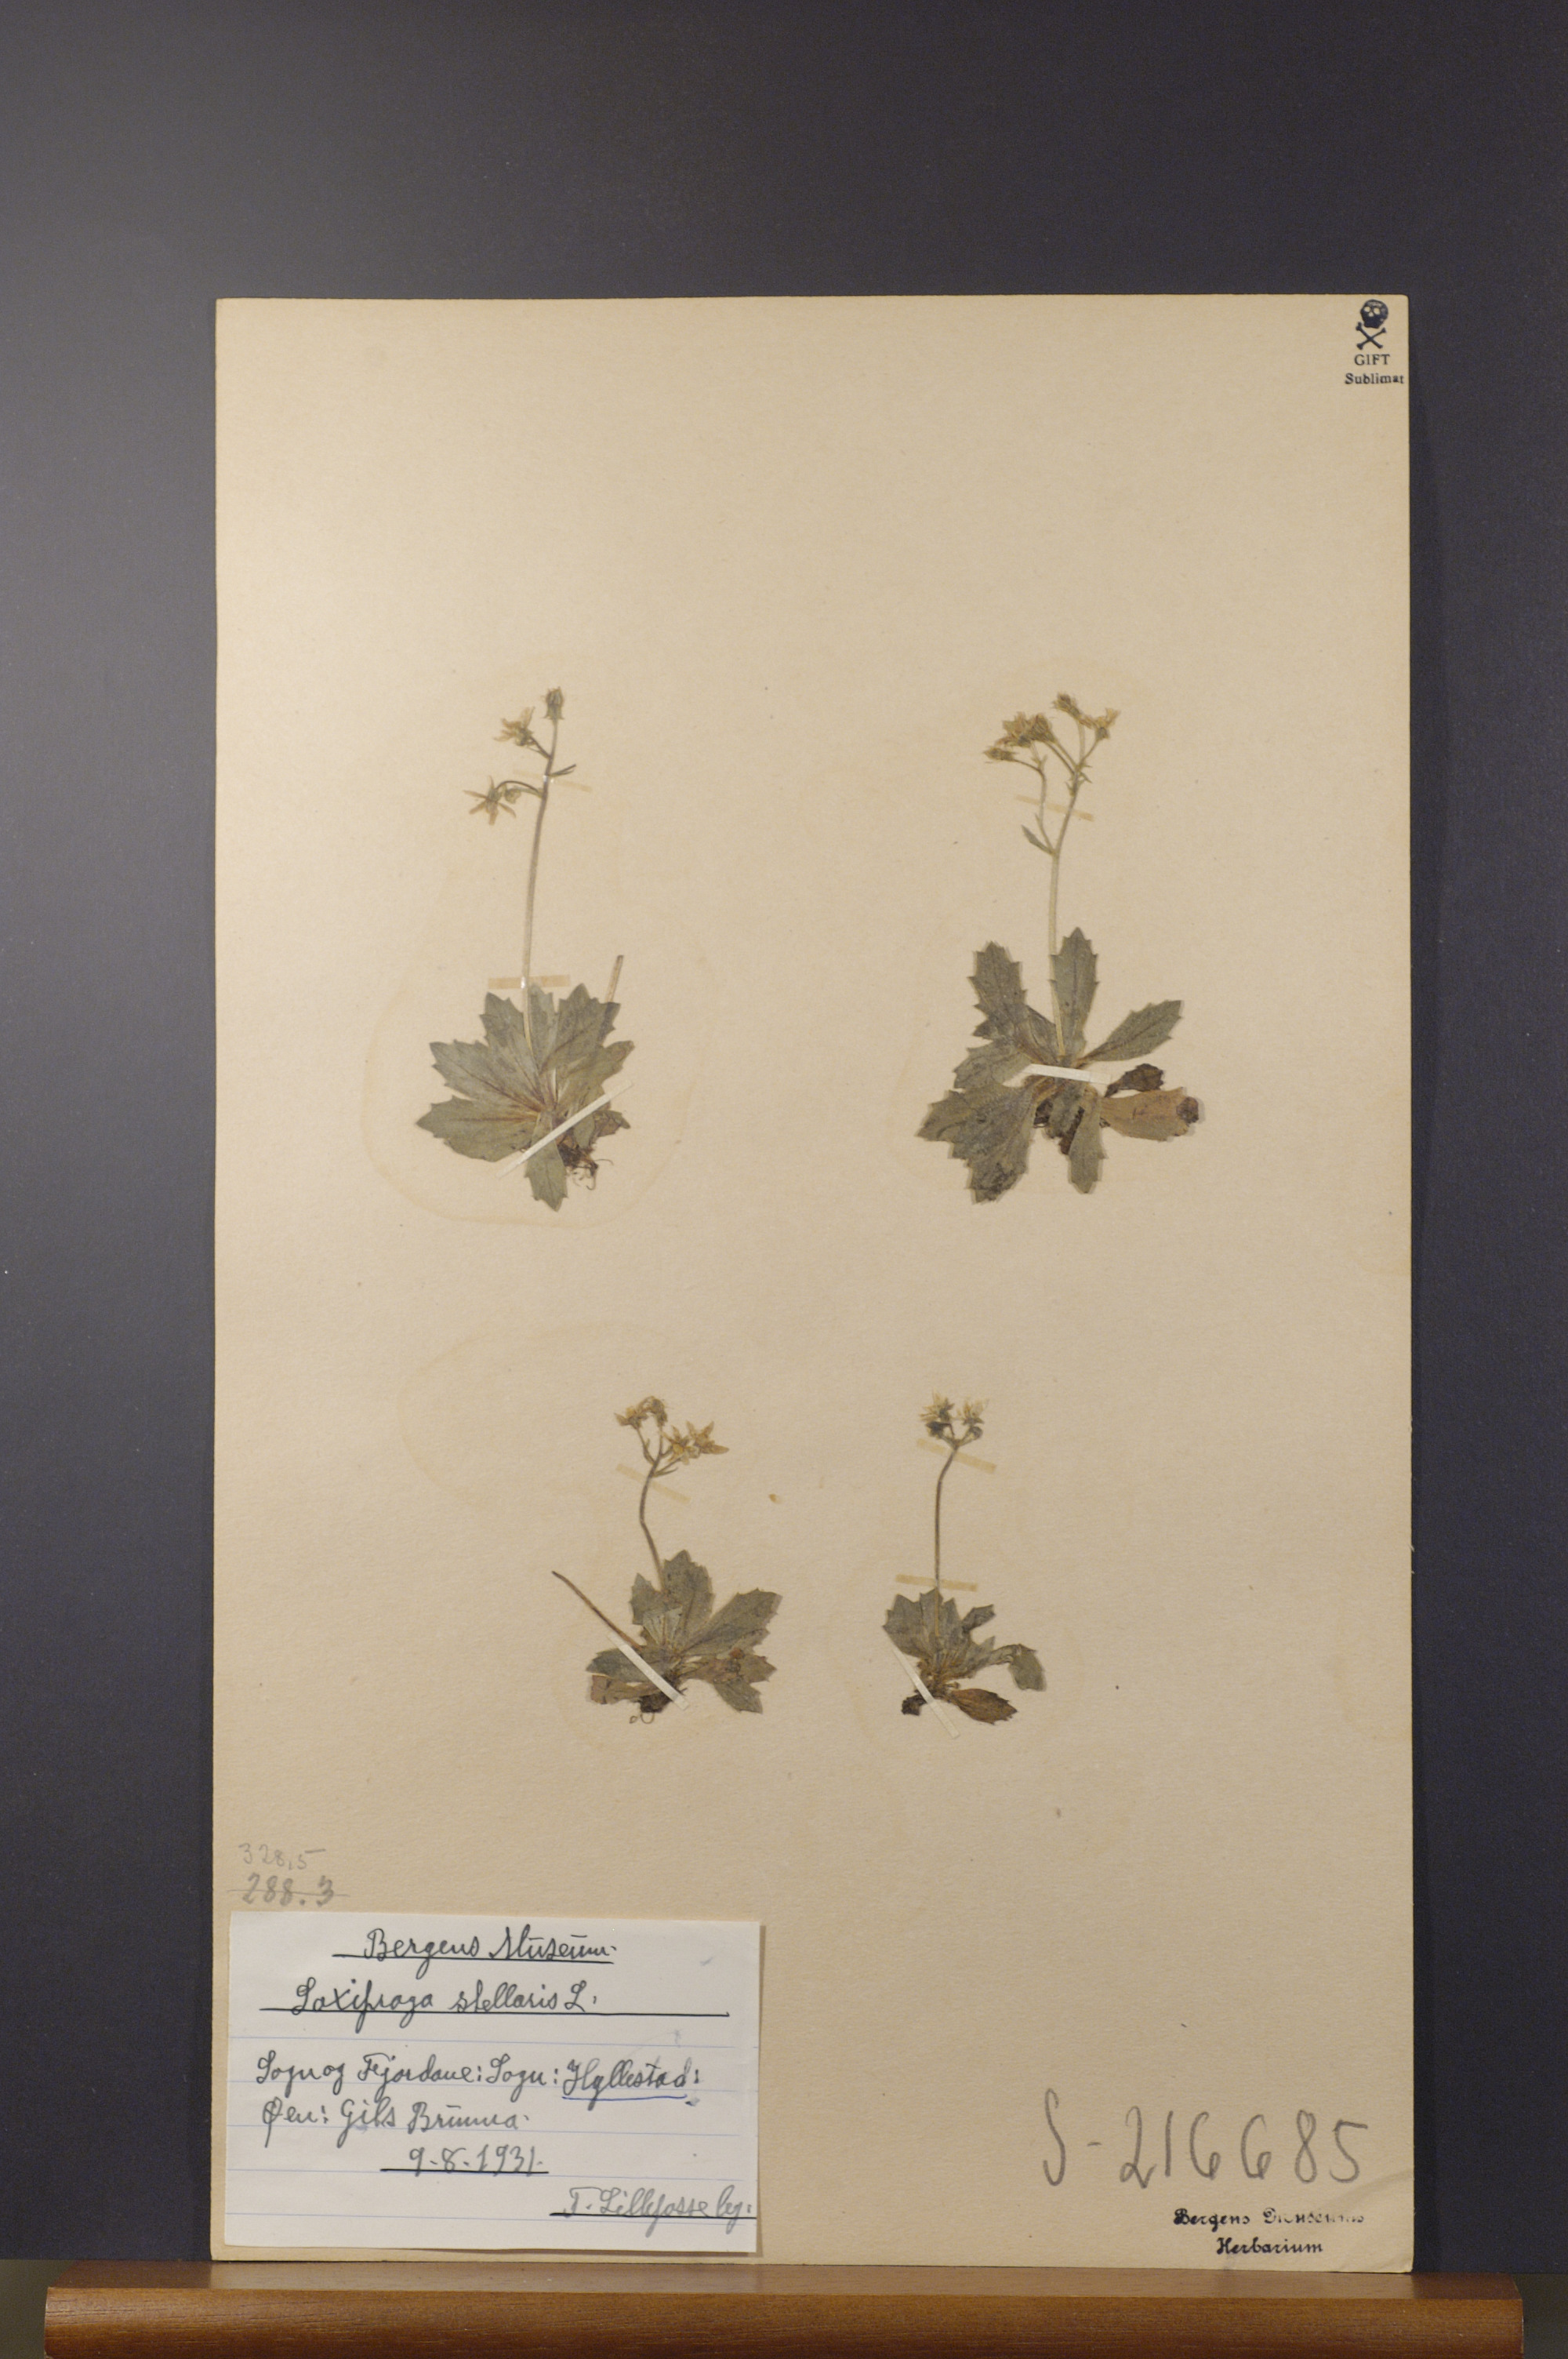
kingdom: Plantae
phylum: Tracheophyta
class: Magnoliopsida
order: Saxifragales
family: Saxifragaceae
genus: Micranthes
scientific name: Micranthes stellaris
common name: Starry saxifrage
